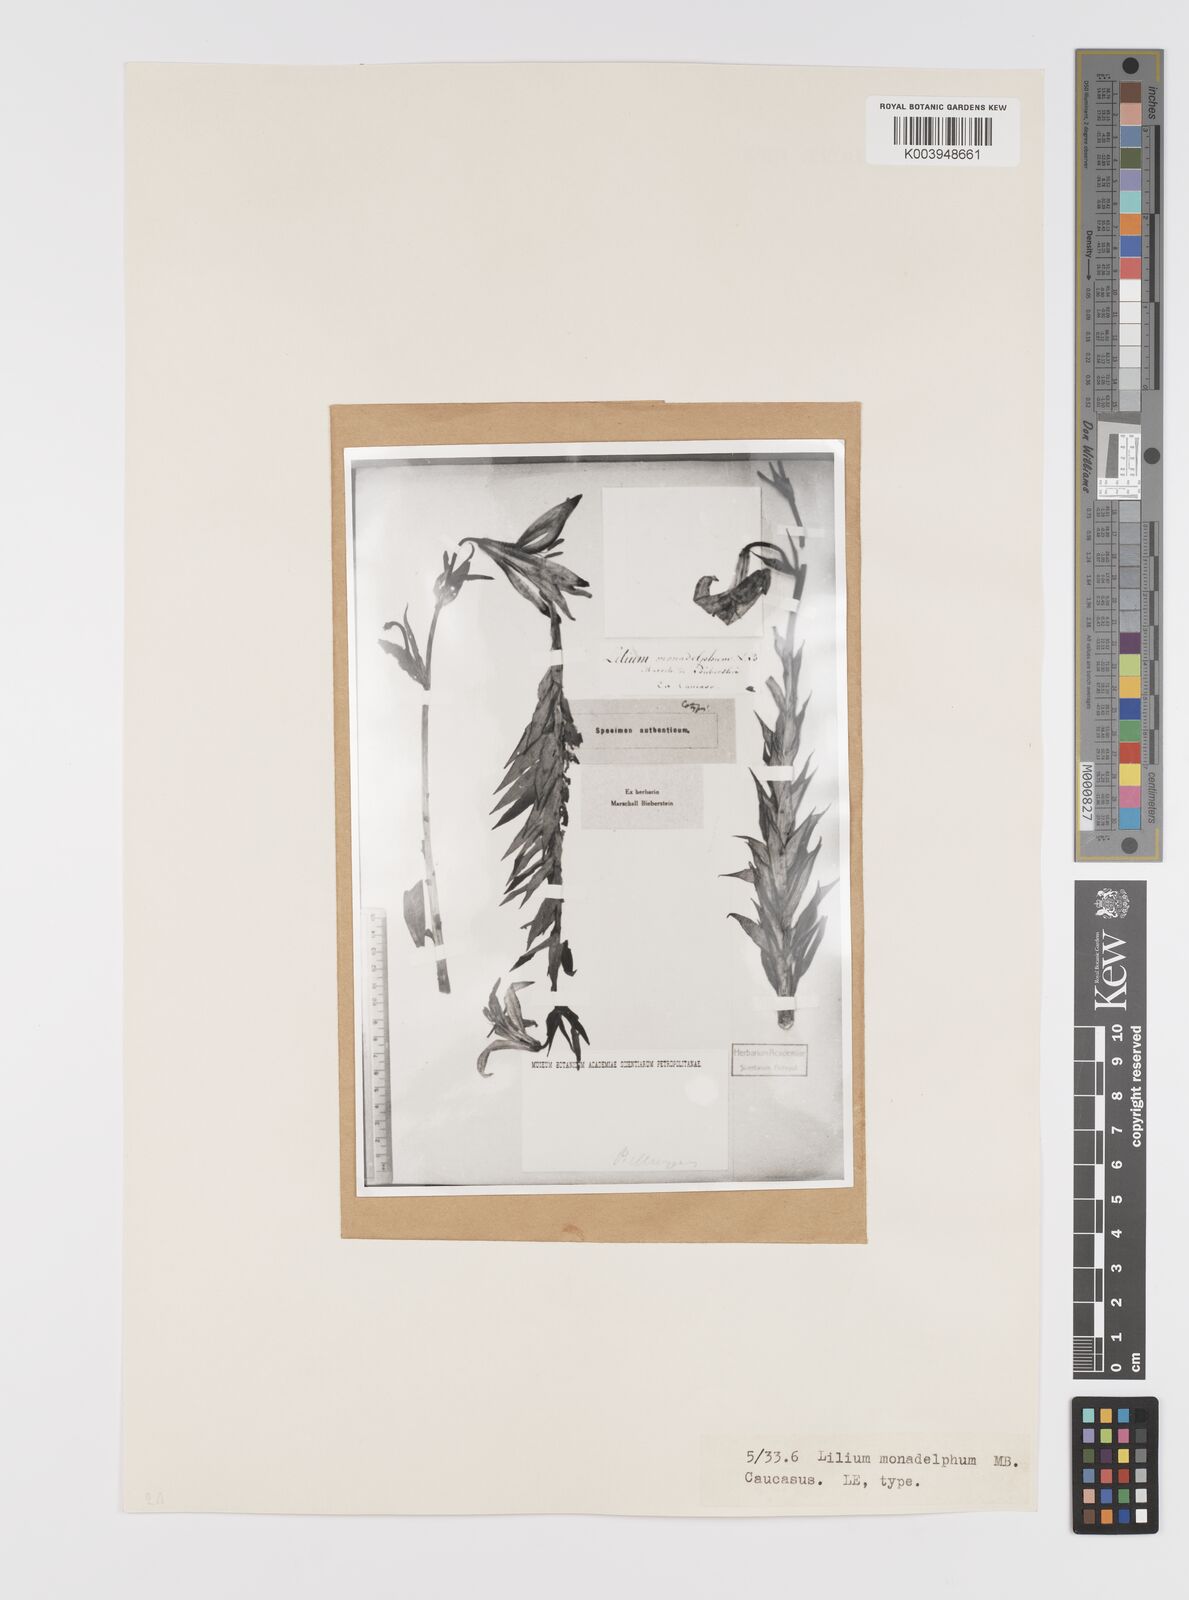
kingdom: Plantae
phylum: Tracheophyta
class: Liliopsida
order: Liliales
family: Liliaceae
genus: Lilium
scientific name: Lilium monadelphum
